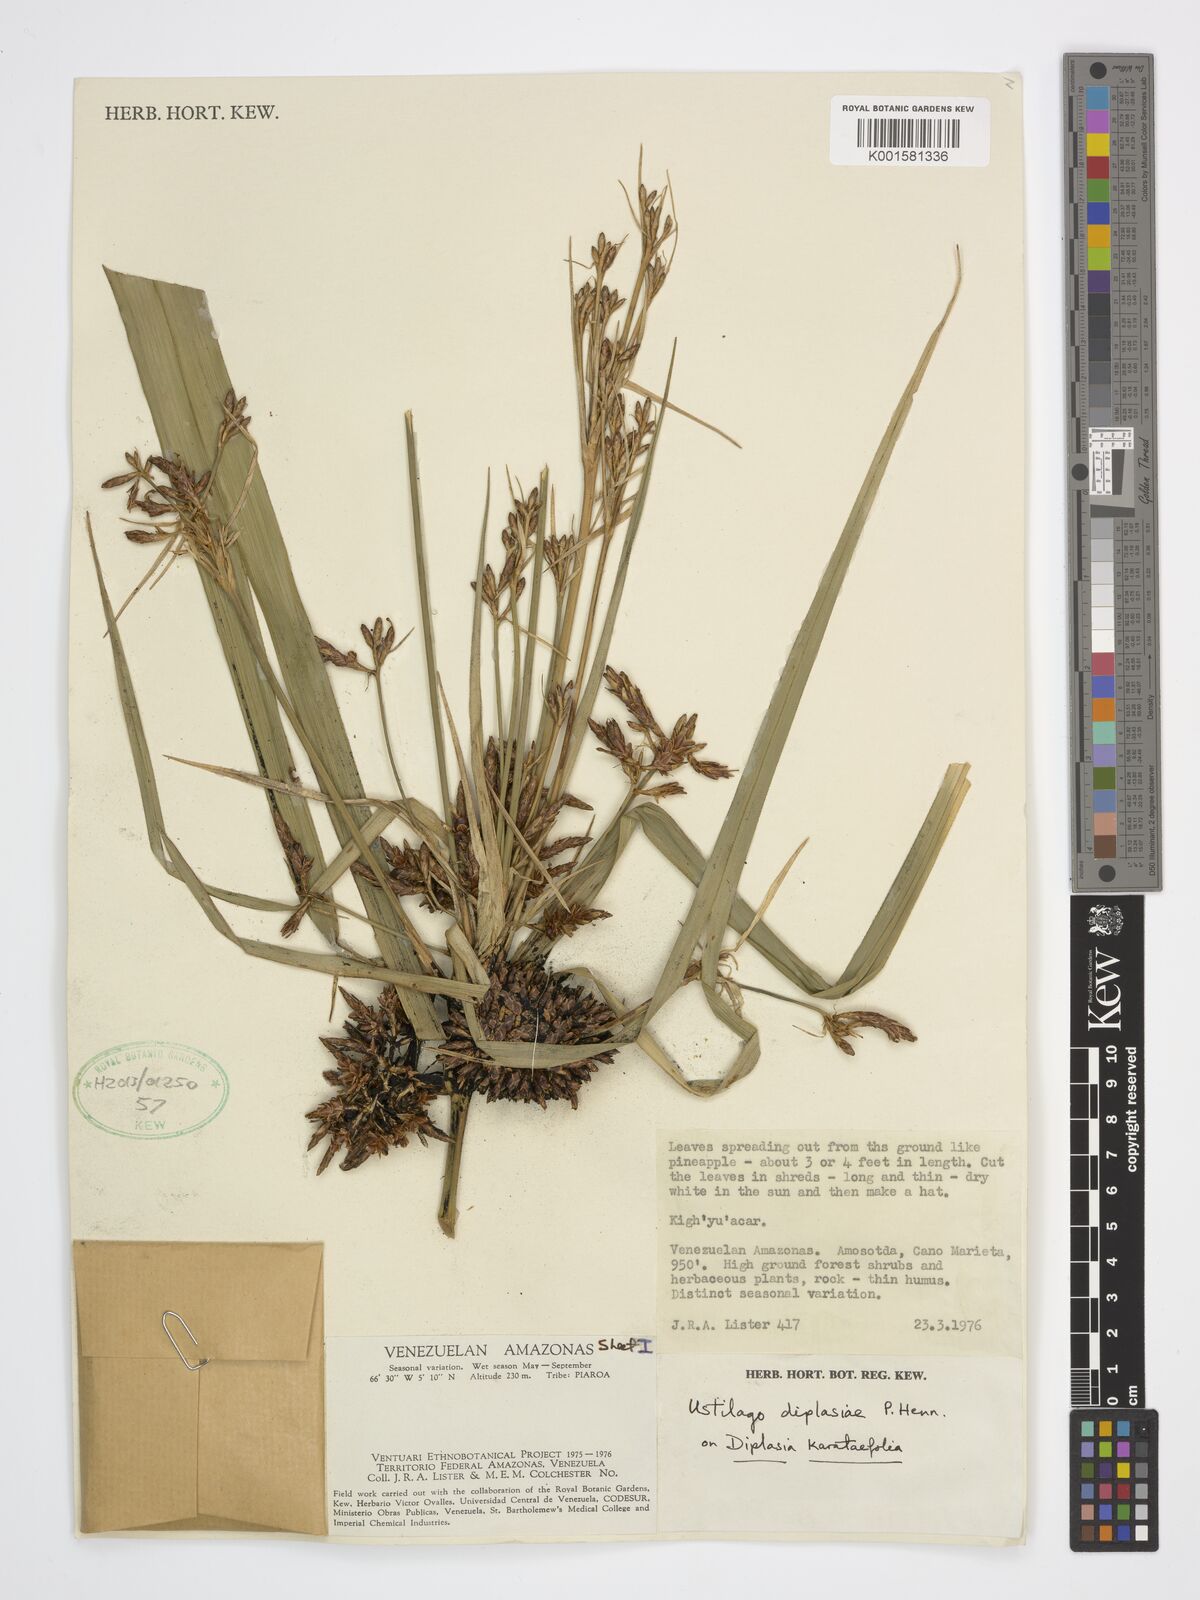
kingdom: Plantae
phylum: Tracheophyta
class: Liliopsida
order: Poales
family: Cyperaceae
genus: Diplasia
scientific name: Diplasia karatifolia
